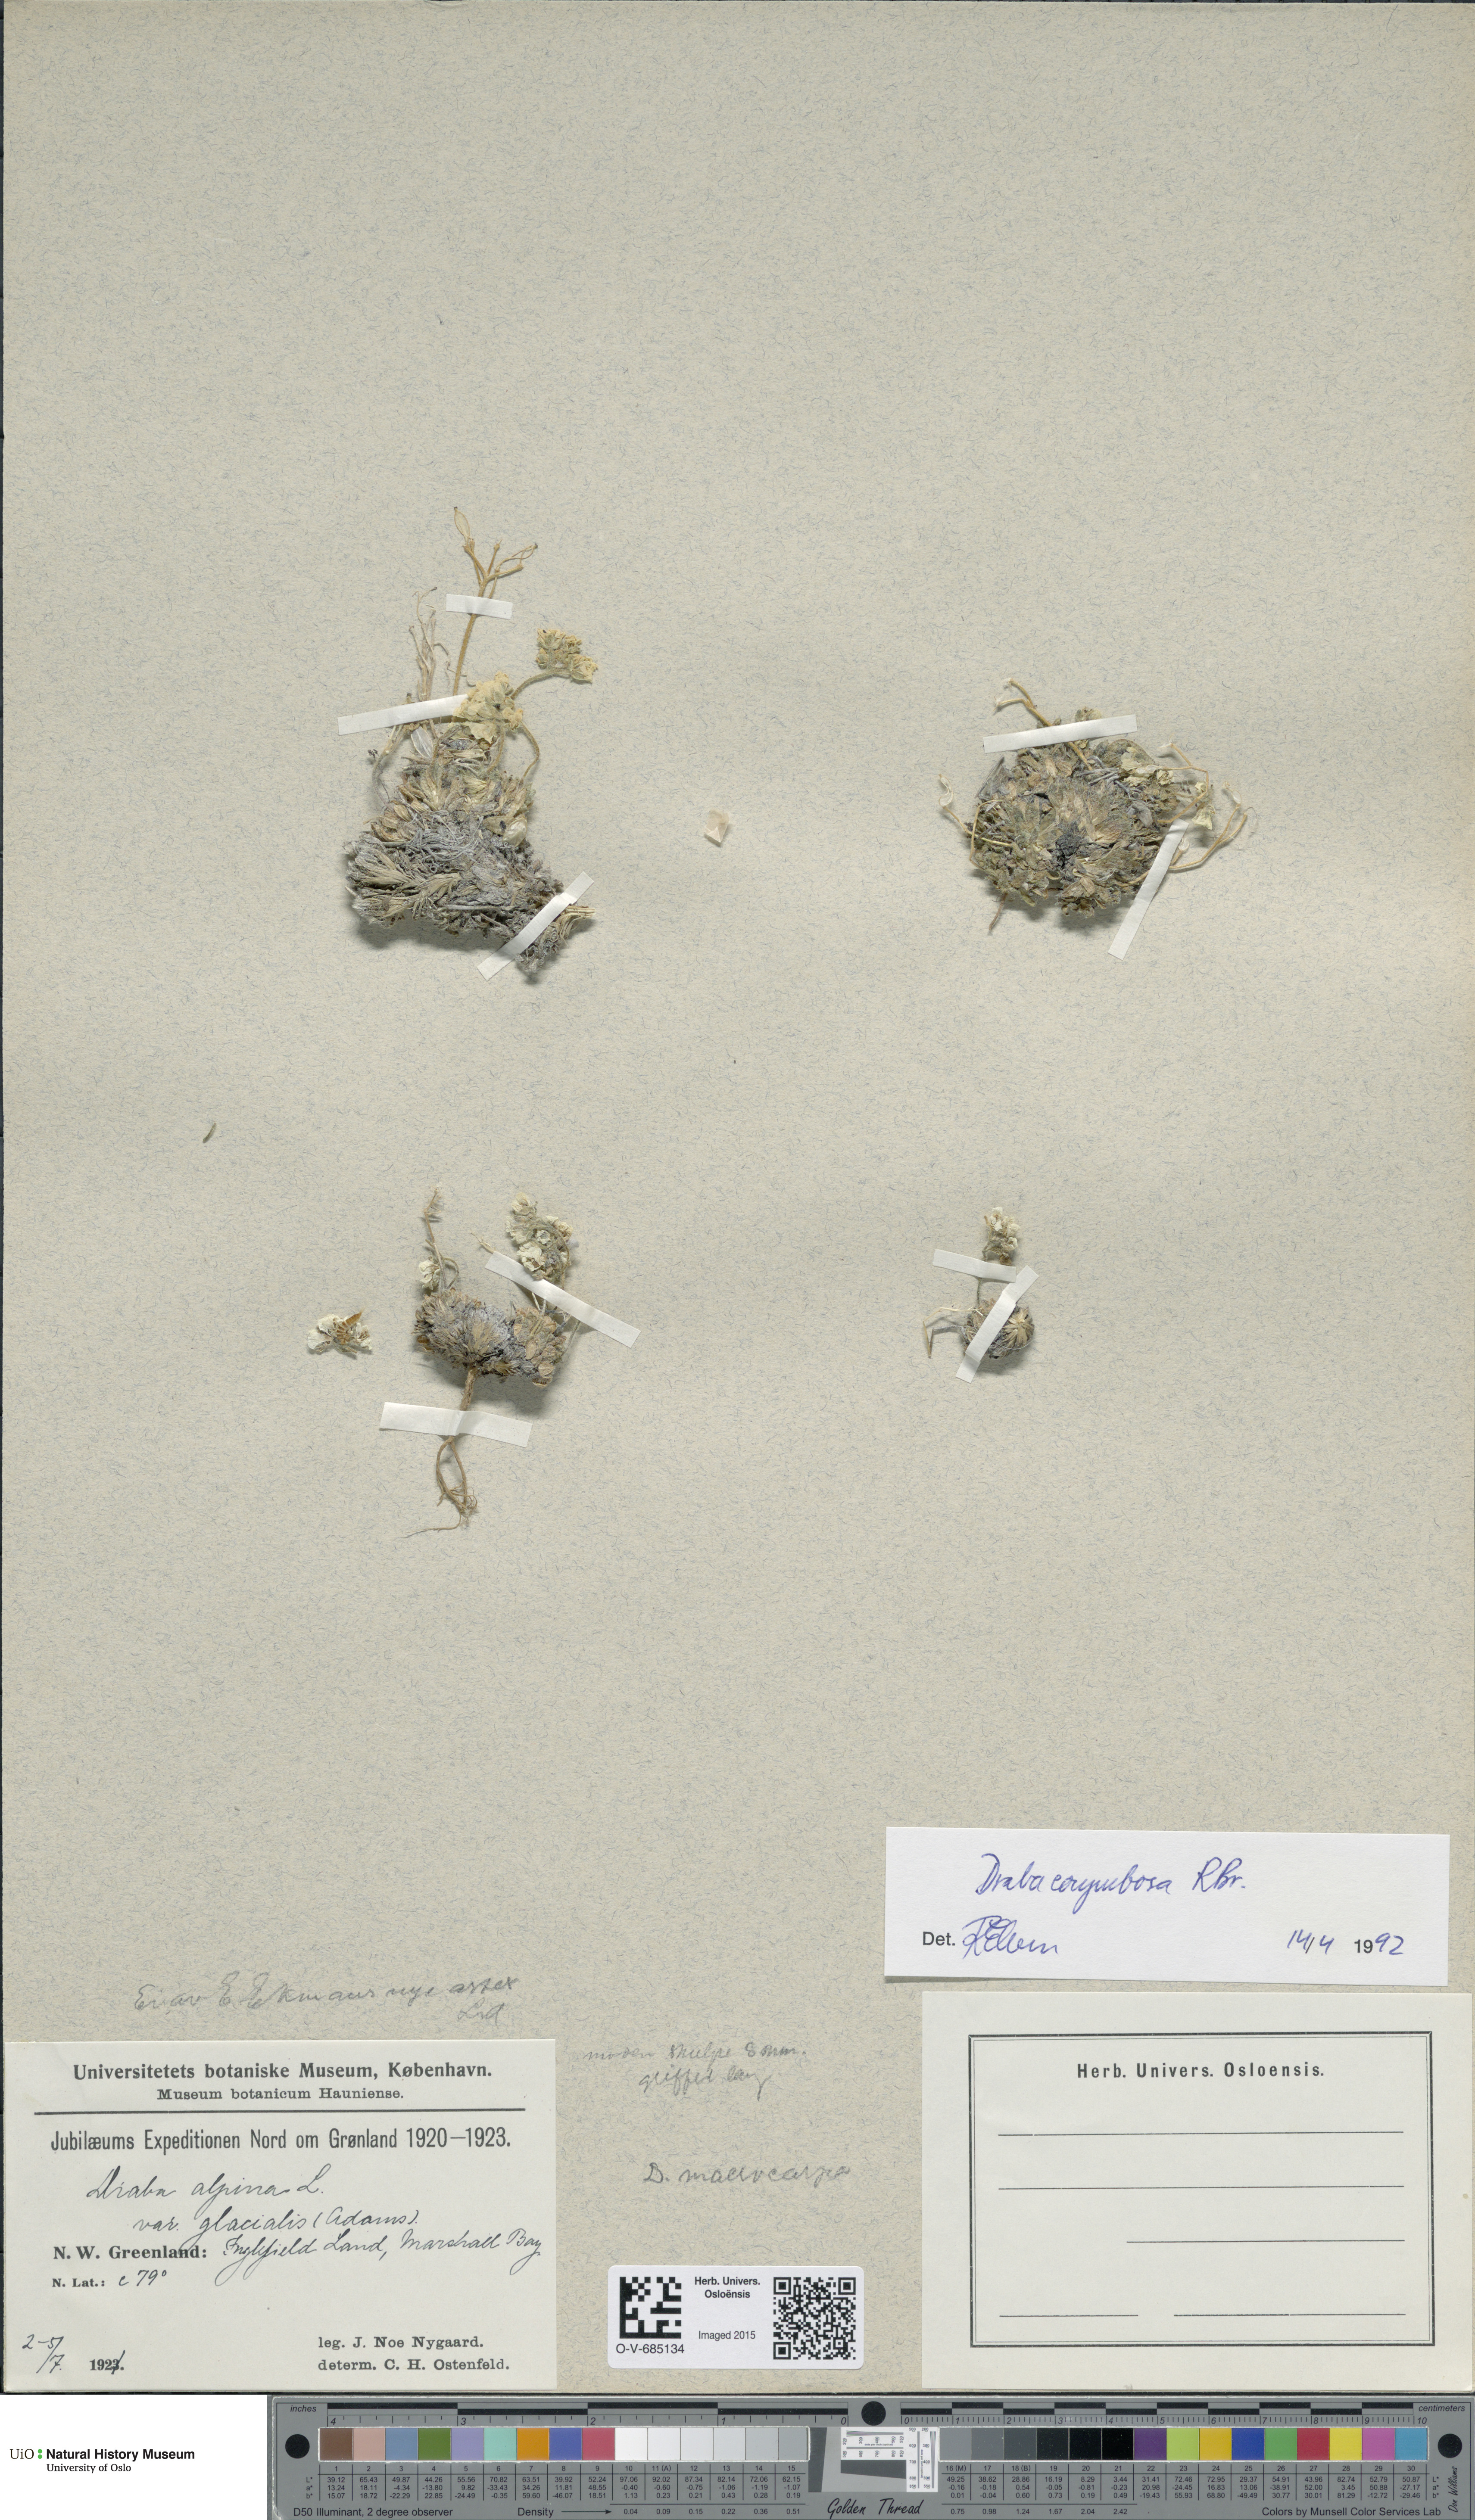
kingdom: Plantae
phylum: Tracheophyta
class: Magnoliopsida
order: Brassicales
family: Brassicaceae
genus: Draba
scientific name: Draba corymbosa
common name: Cushion whitlow-grass
